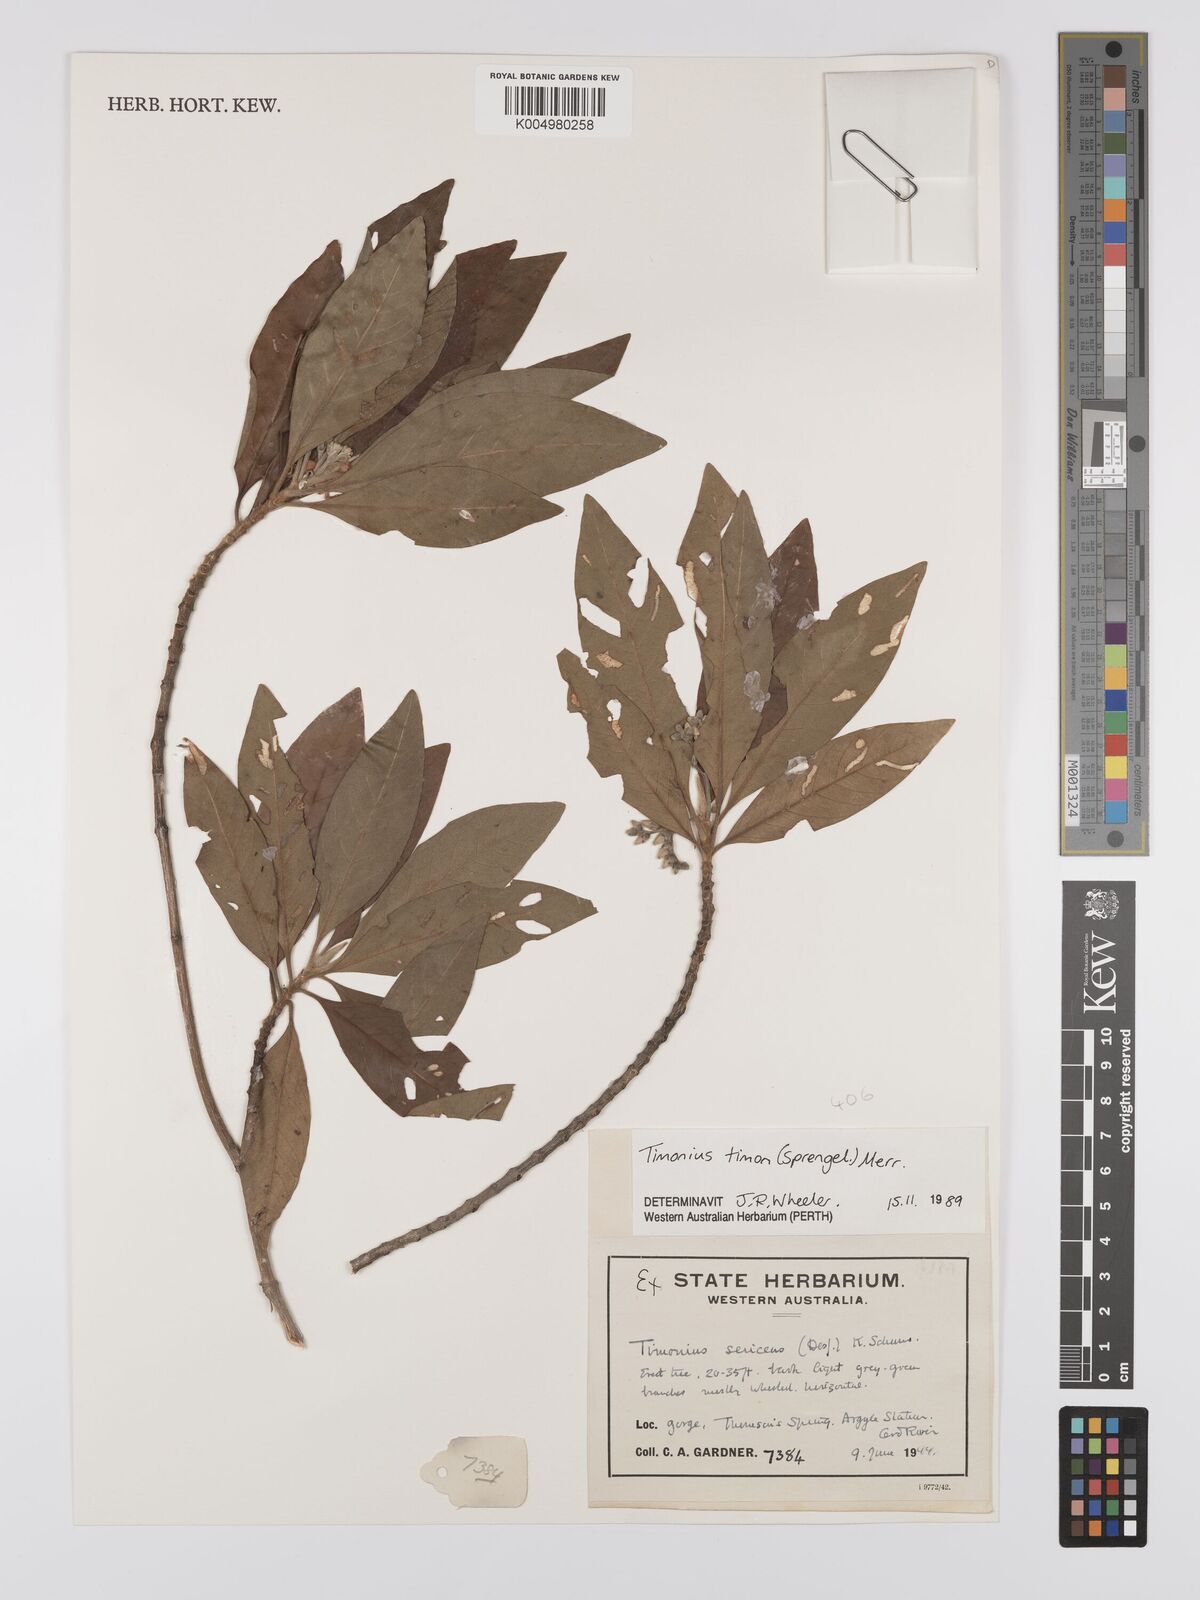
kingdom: Plantae
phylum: Tracheophyta
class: Magnoliopsida
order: Gentianales
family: Rubiaceae
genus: Timonius
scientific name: Timonius timon
